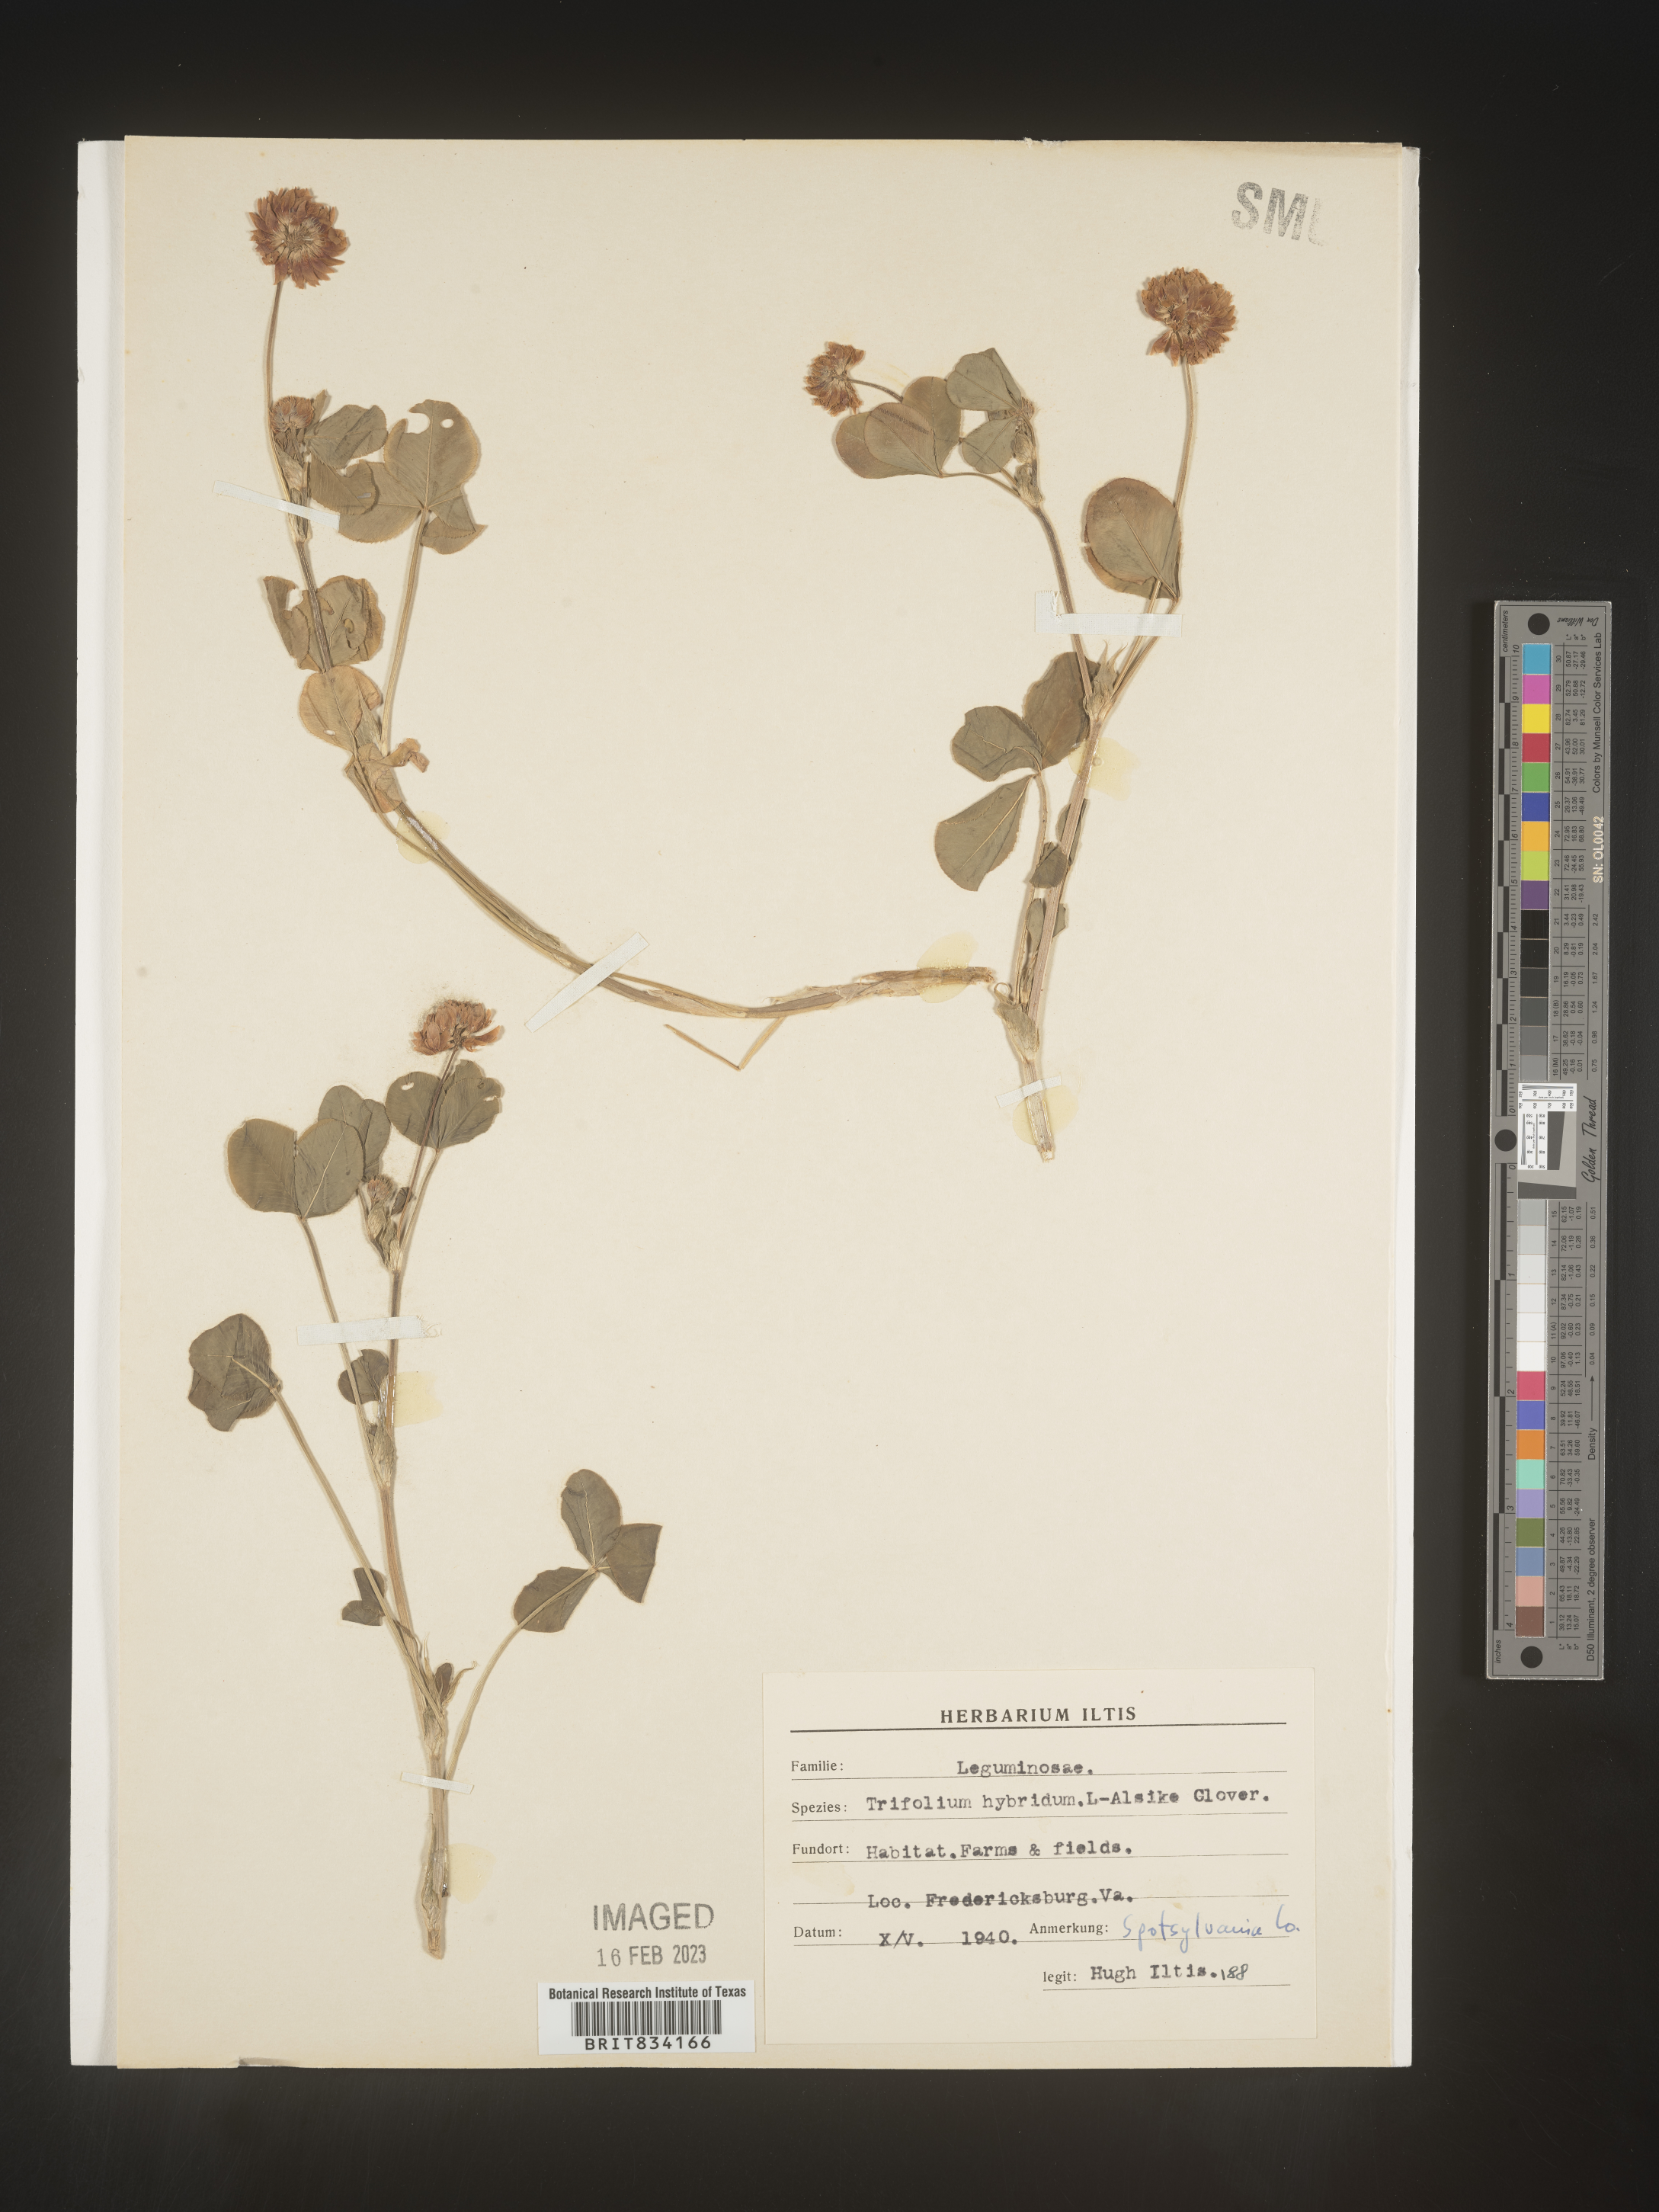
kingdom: Plantae
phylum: Tracheophyta
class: Magnoliopsida
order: Fabales
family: Fabaceae
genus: Trifolium
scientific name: Trifolium hybridum
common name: Alsike clover
